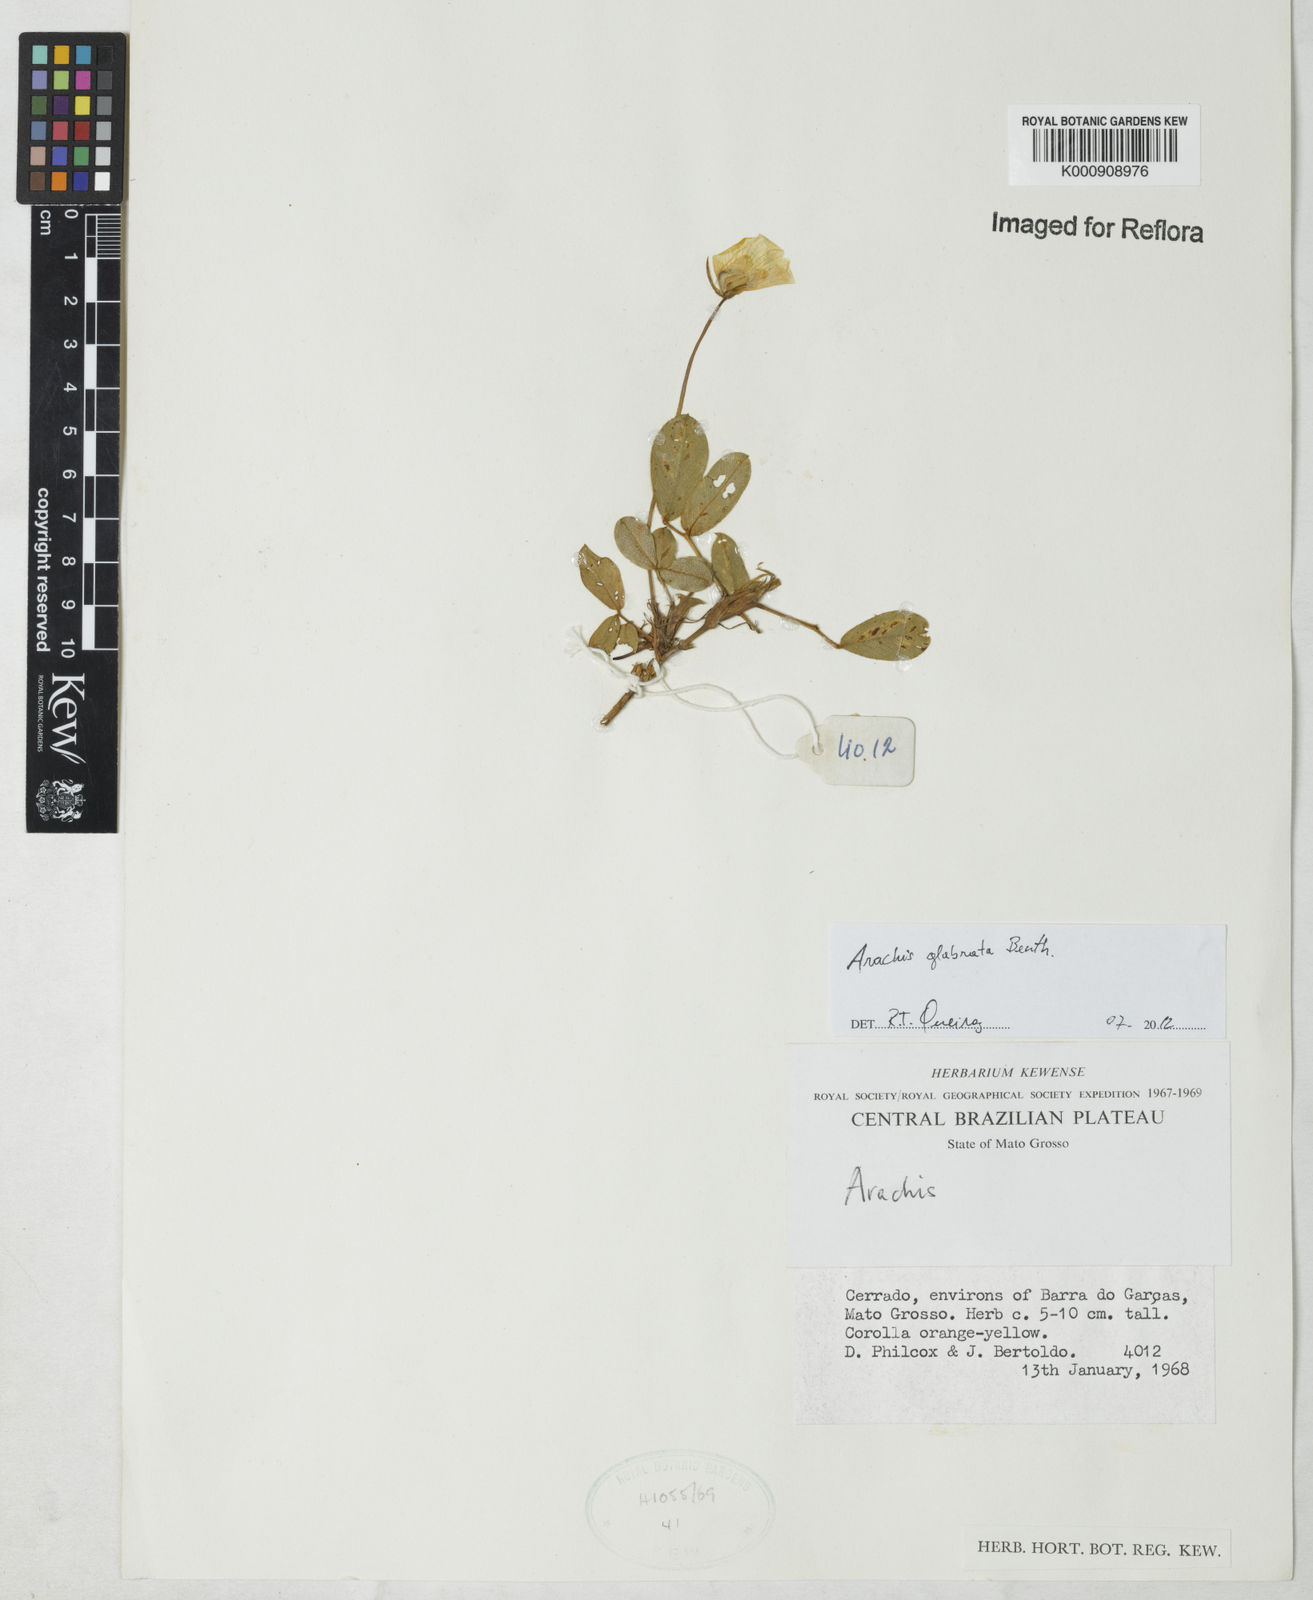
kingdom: Plantae
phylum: Tracheophyta
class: Magnoliopsida
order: Fabales
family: Fabaceae
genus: Arachis
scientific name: Arachis glabrata
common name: Rhizoma peanut
